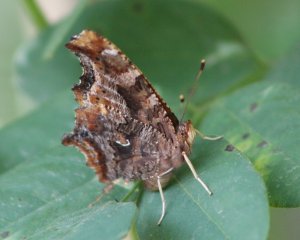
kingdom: Animalia
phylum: Arthropoda
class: Insecta
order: Lepidoptera
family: Nymphalidae
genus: Polygonia
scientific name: Polygonia comma
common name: Eastern Comma
